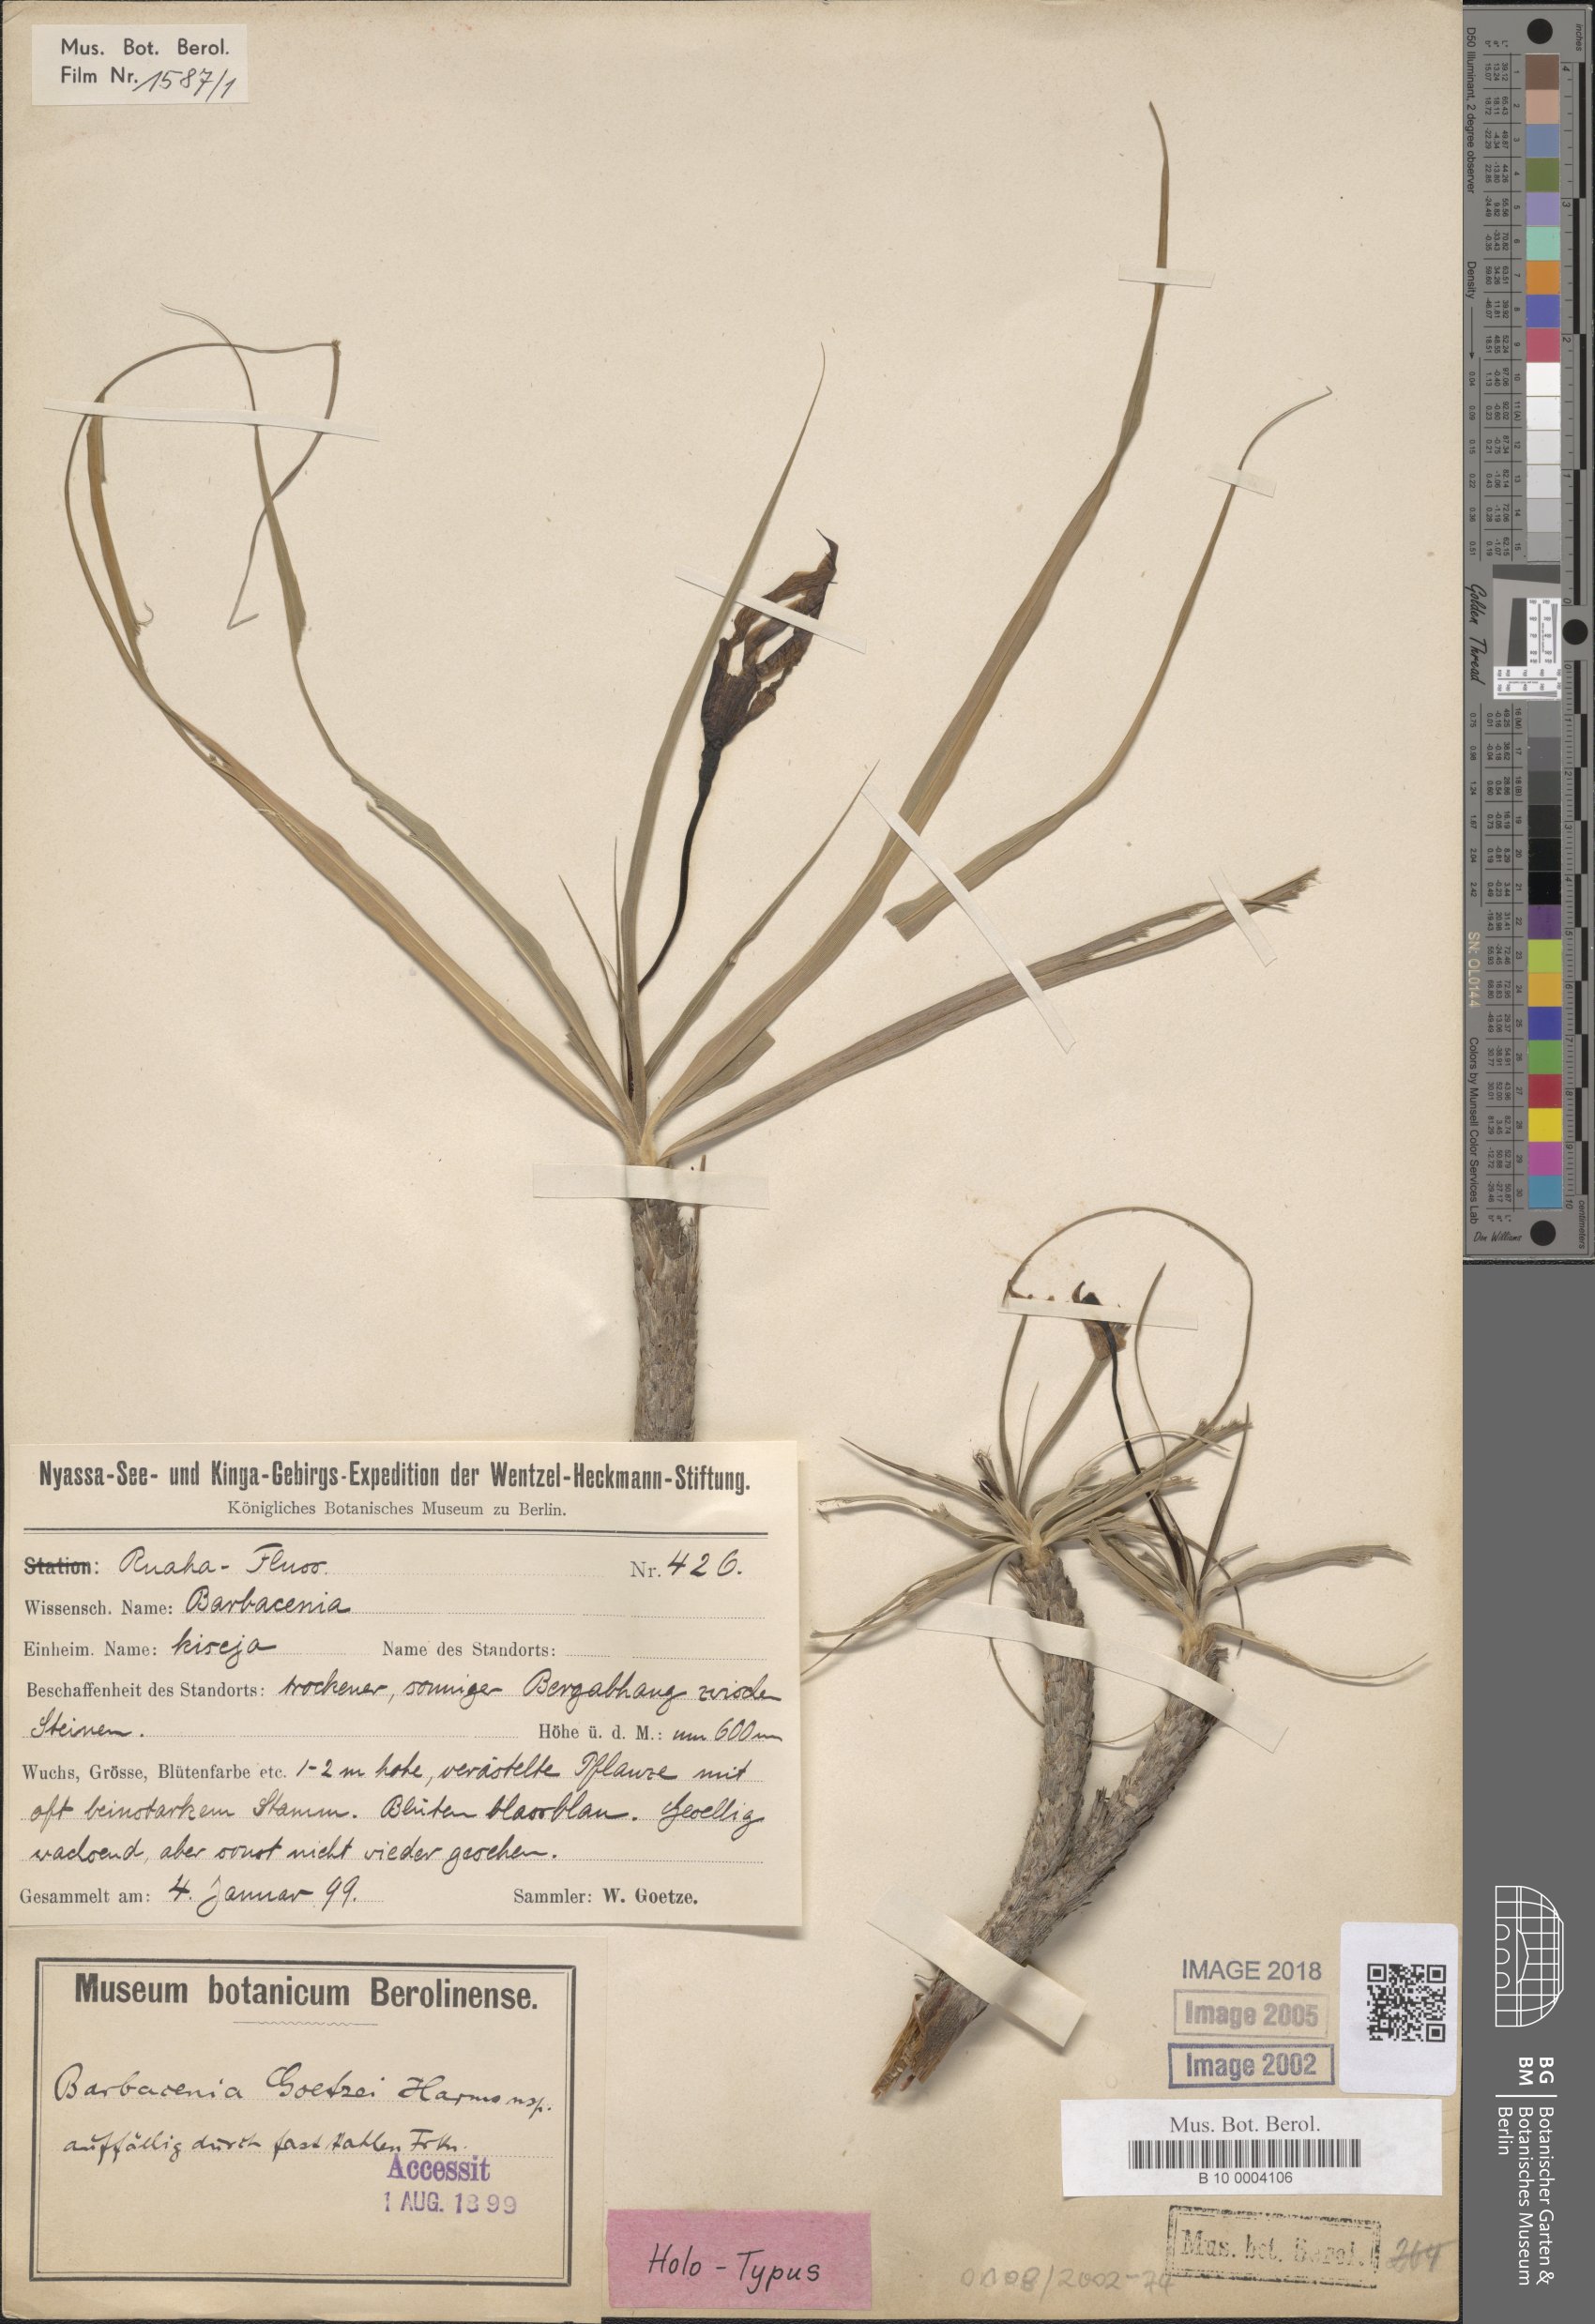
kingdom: Plantae
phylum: Tracheophyta
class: Liliopsida
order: Pandanales
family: Velloziaceae
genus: Xerophyta
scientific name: Xerophyta goetzei
